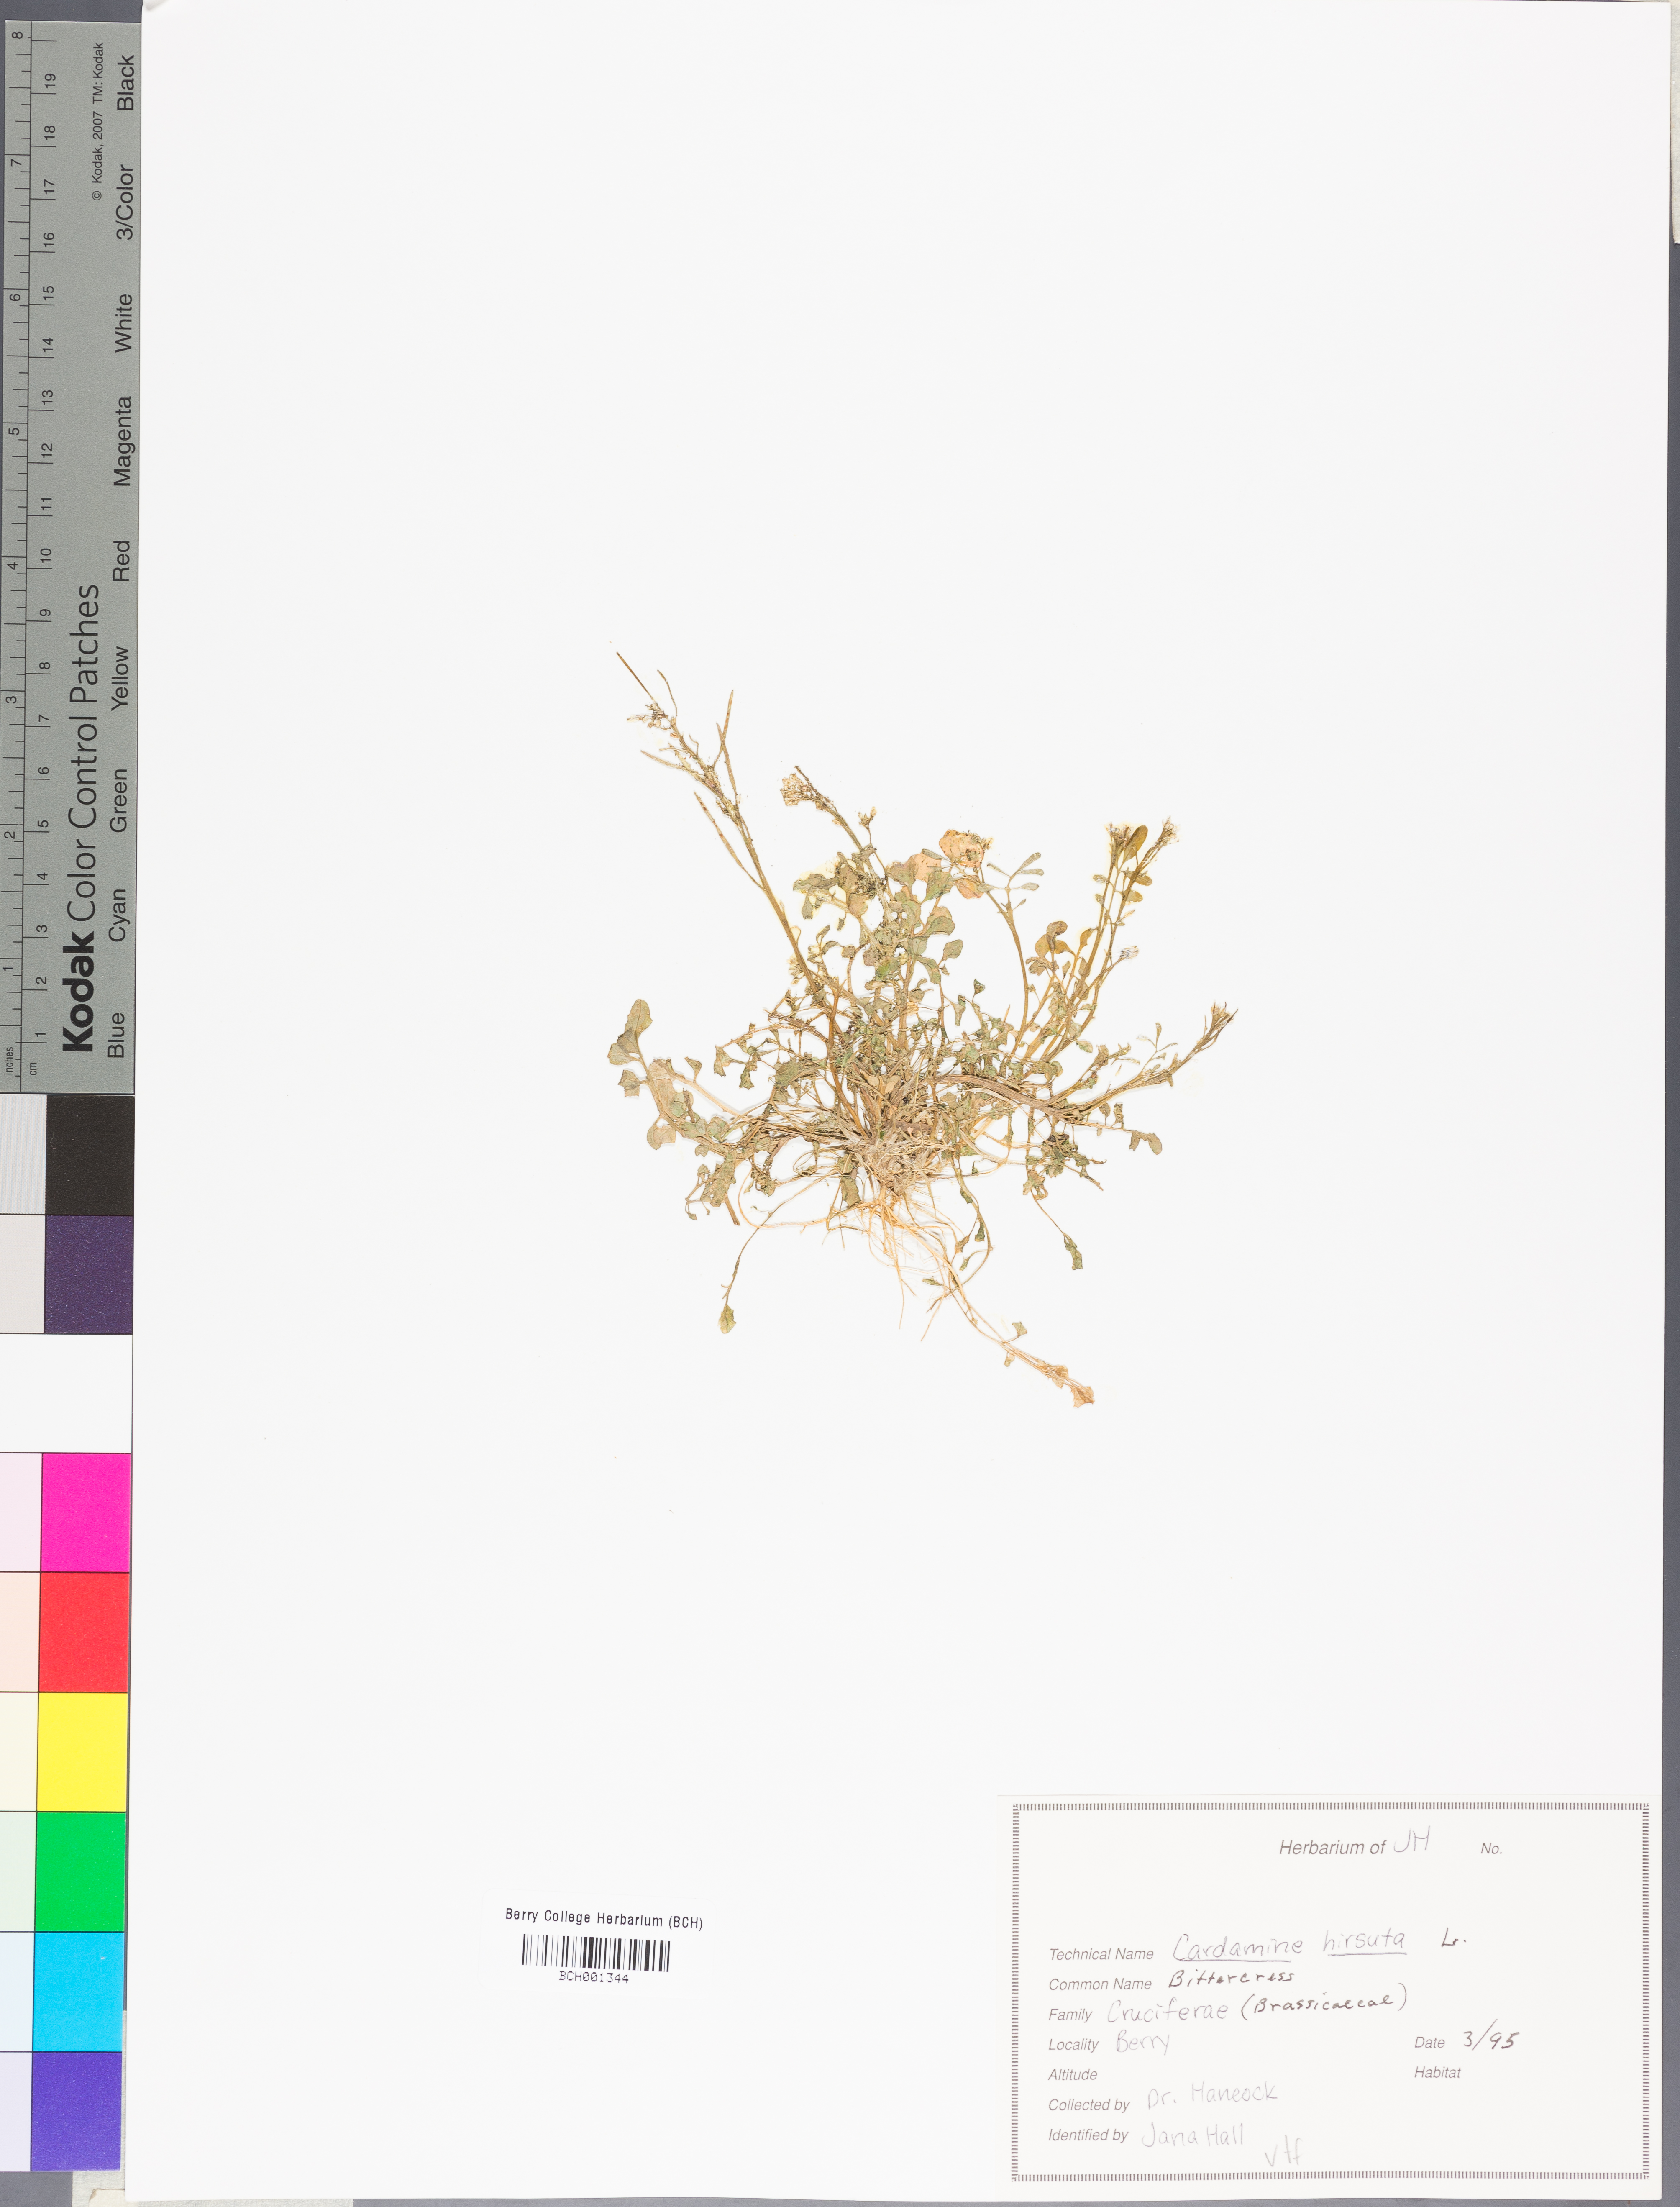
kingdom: Plantae
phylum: Tracheophyta
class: Magnoliopsida
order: Brassicales
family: Brassicaceae
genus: Cardamine
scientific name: Cardamine hirsuta
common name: Hairy bittercress
